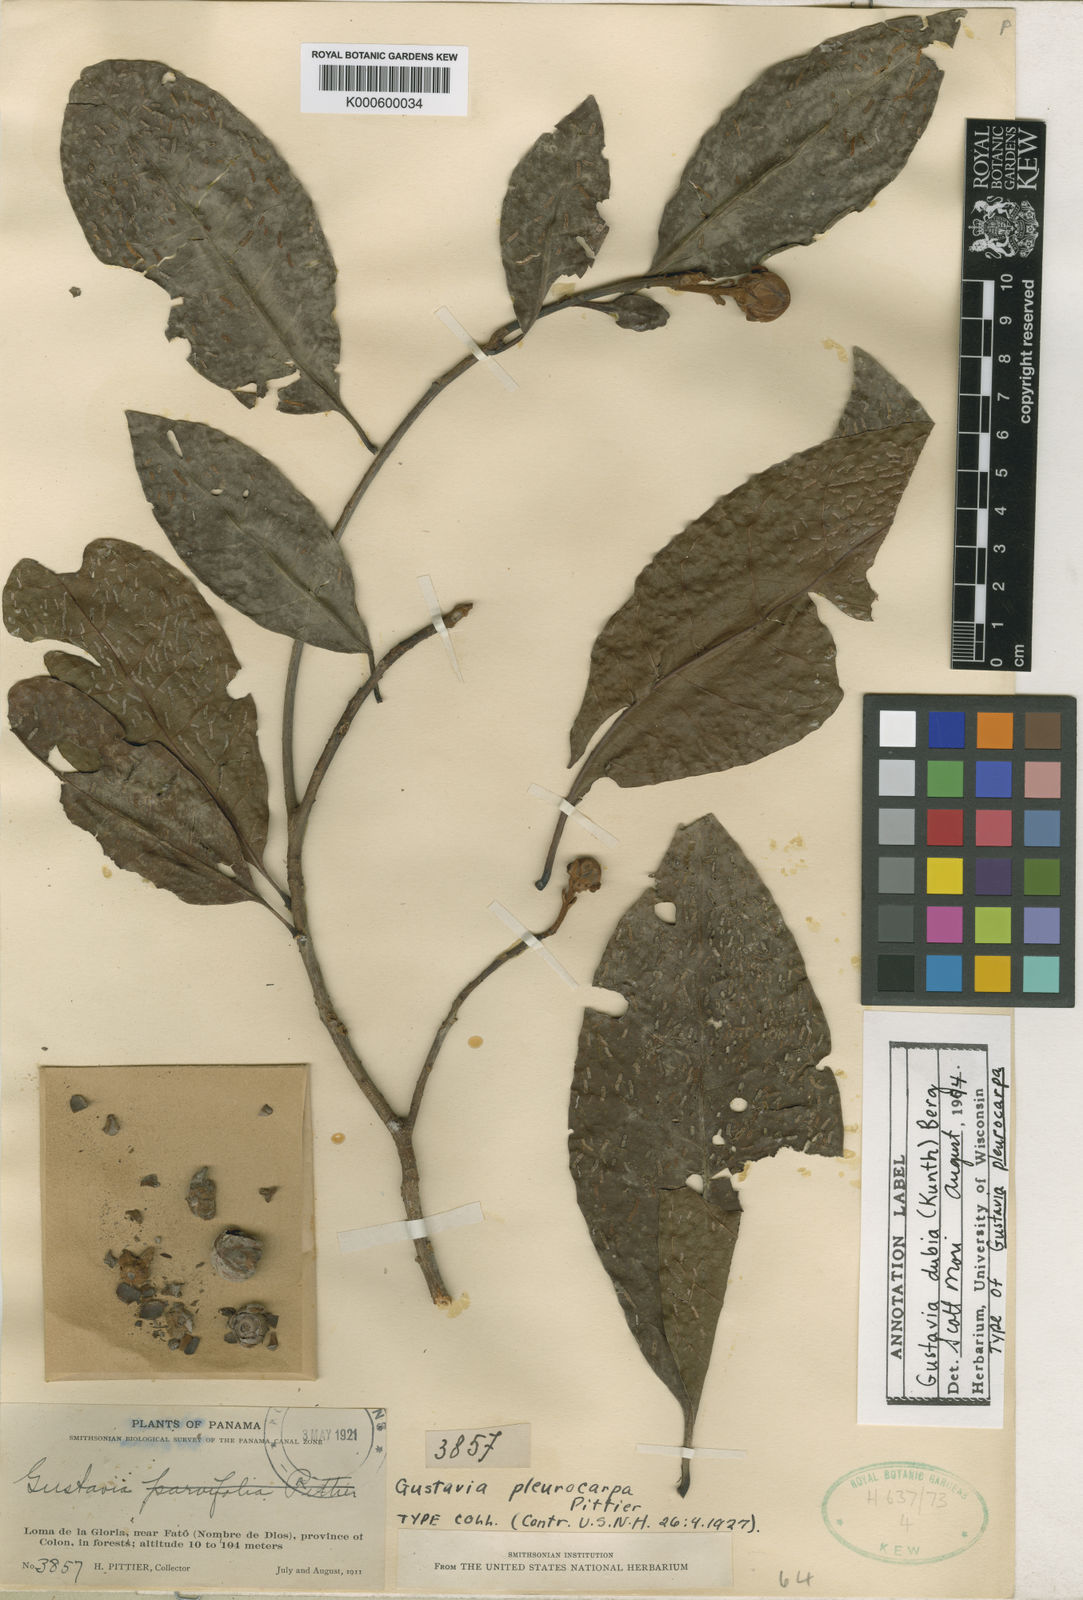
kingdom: Plantae
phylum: Tracheophyta
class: Magnoliopsida
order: Ericales
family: Lecythidaceae
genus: Gustavia
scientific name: Gustavia dubia
